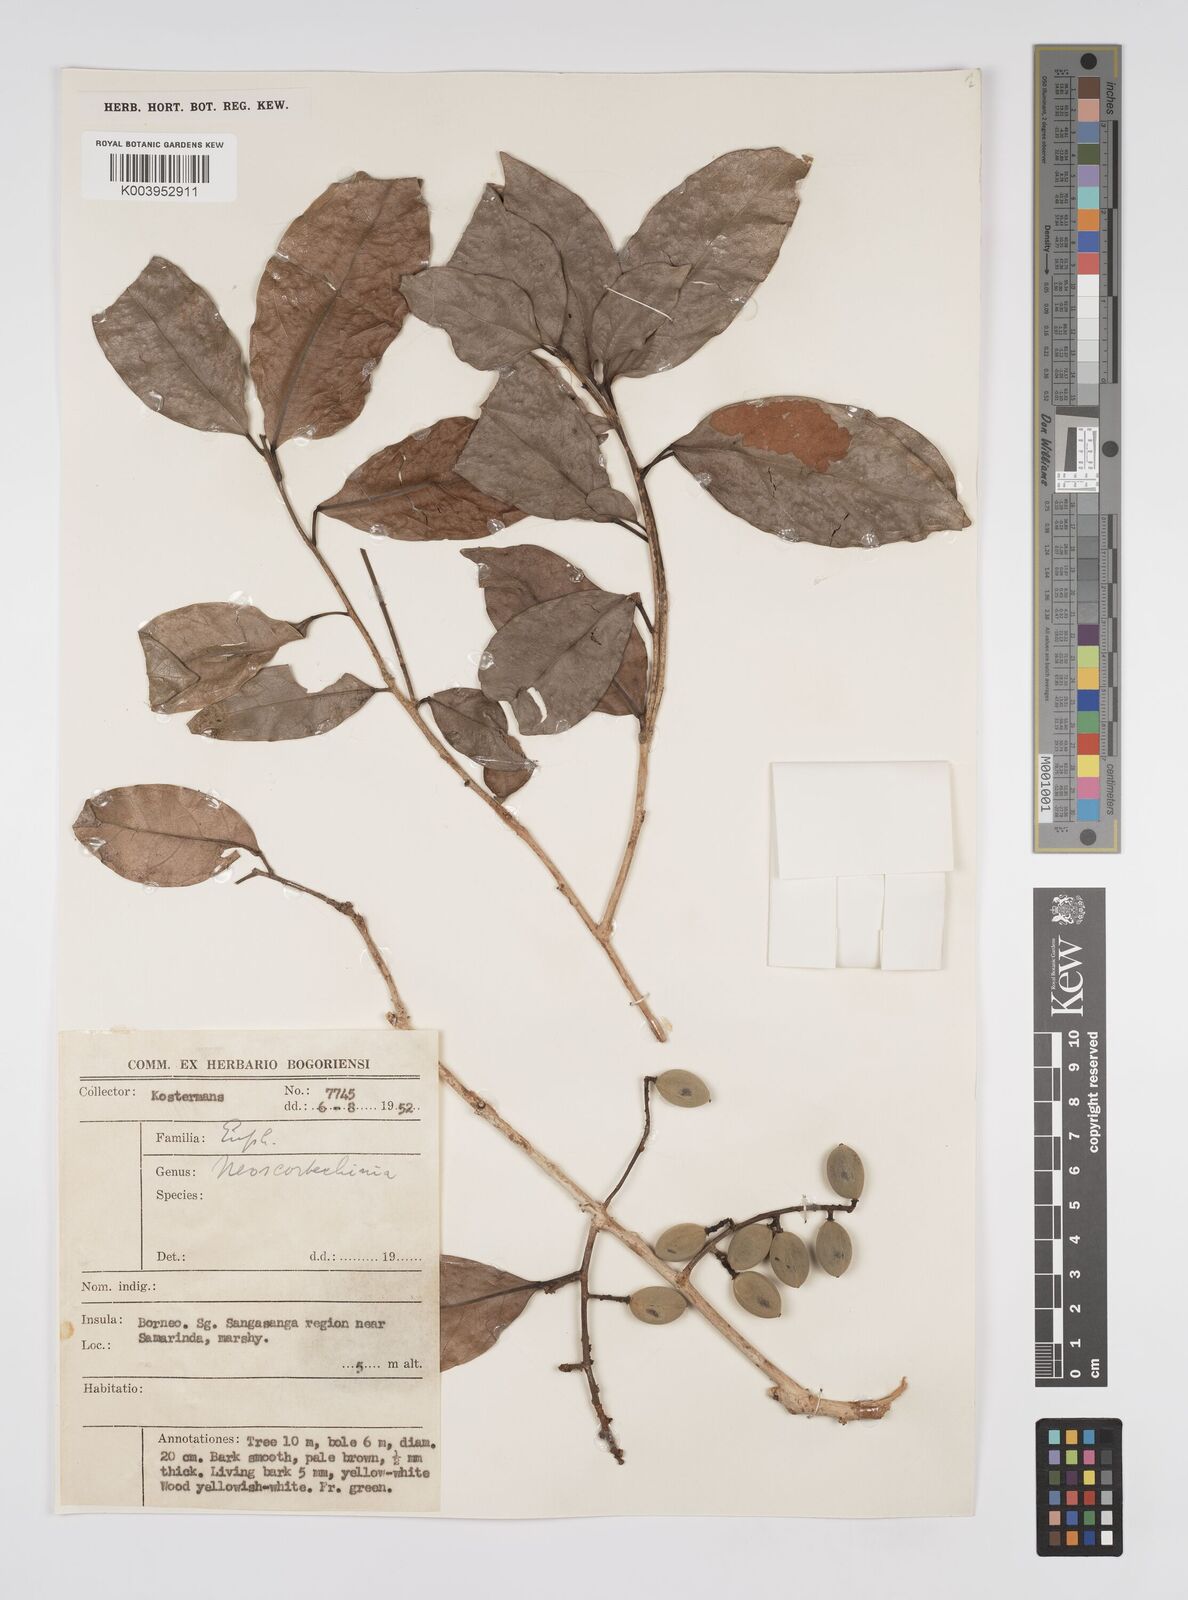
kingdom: Plantae
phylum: Tracheophyta
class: Magnoliopsida
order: Malpighiales
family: Euphorbiaceae
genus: Neoscortechinia
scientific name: Neoscortechinia philippinensis
